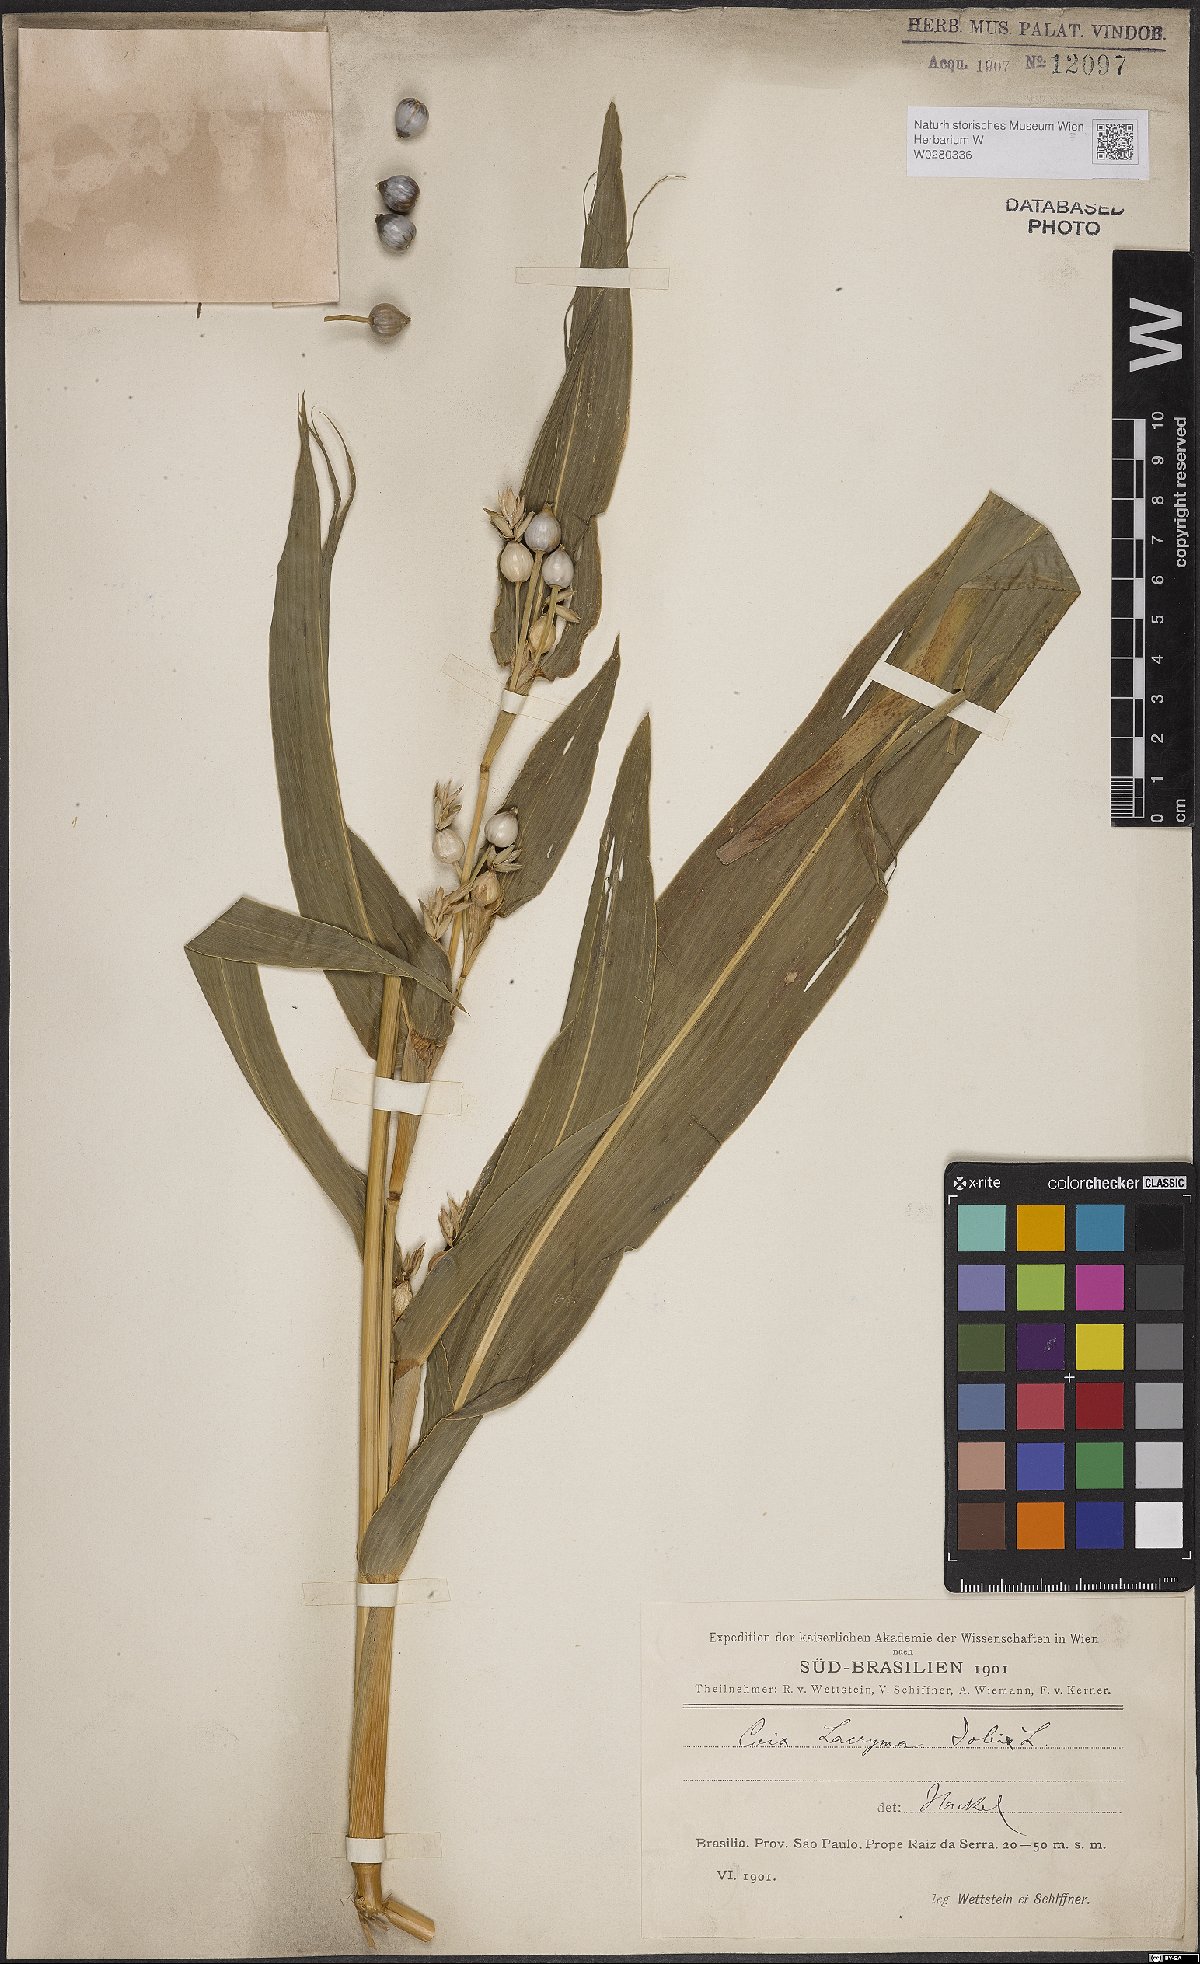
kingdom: Plantae
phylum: Tracheophyta
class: Liliopsida
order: Poales
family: Poaceae
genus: Coix
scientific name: Coix lacryma-jobi
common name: Job's tears
